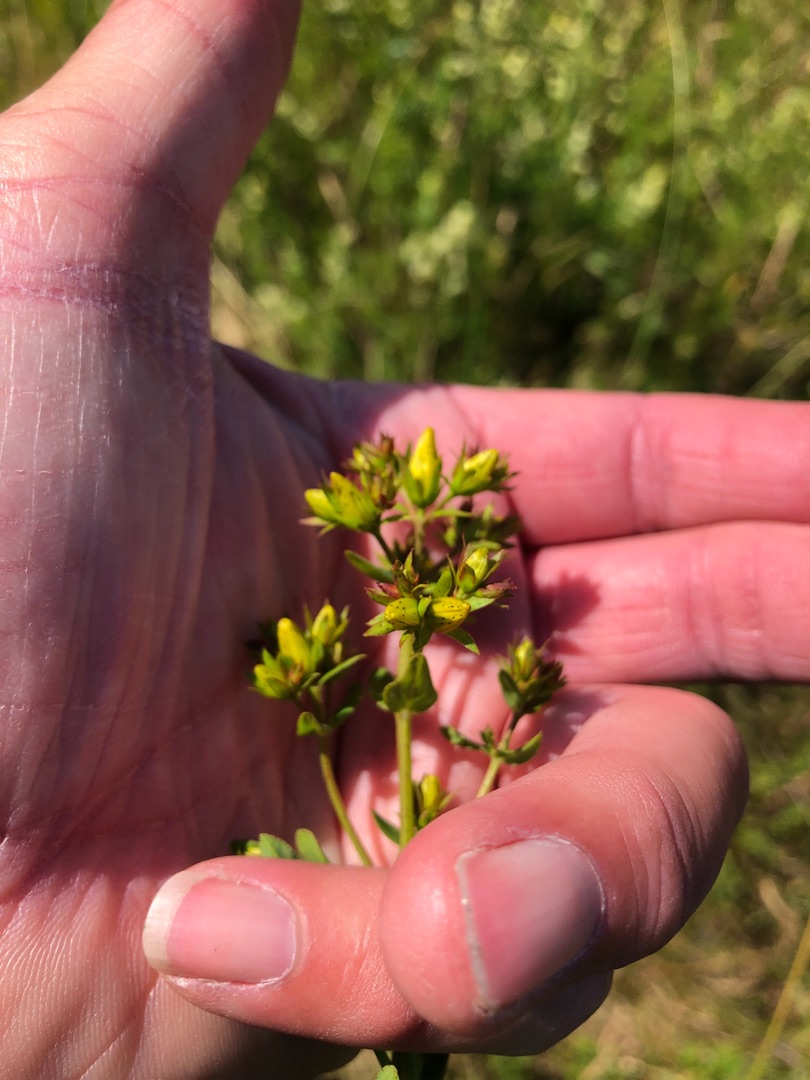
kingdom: Plantae
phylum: Tracheophyta
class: Magnoliopsida
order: Malpighiales
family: Hypericaceae
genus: Hypericum
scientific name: Hypericum perforatum
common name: Prikbladet perikon
